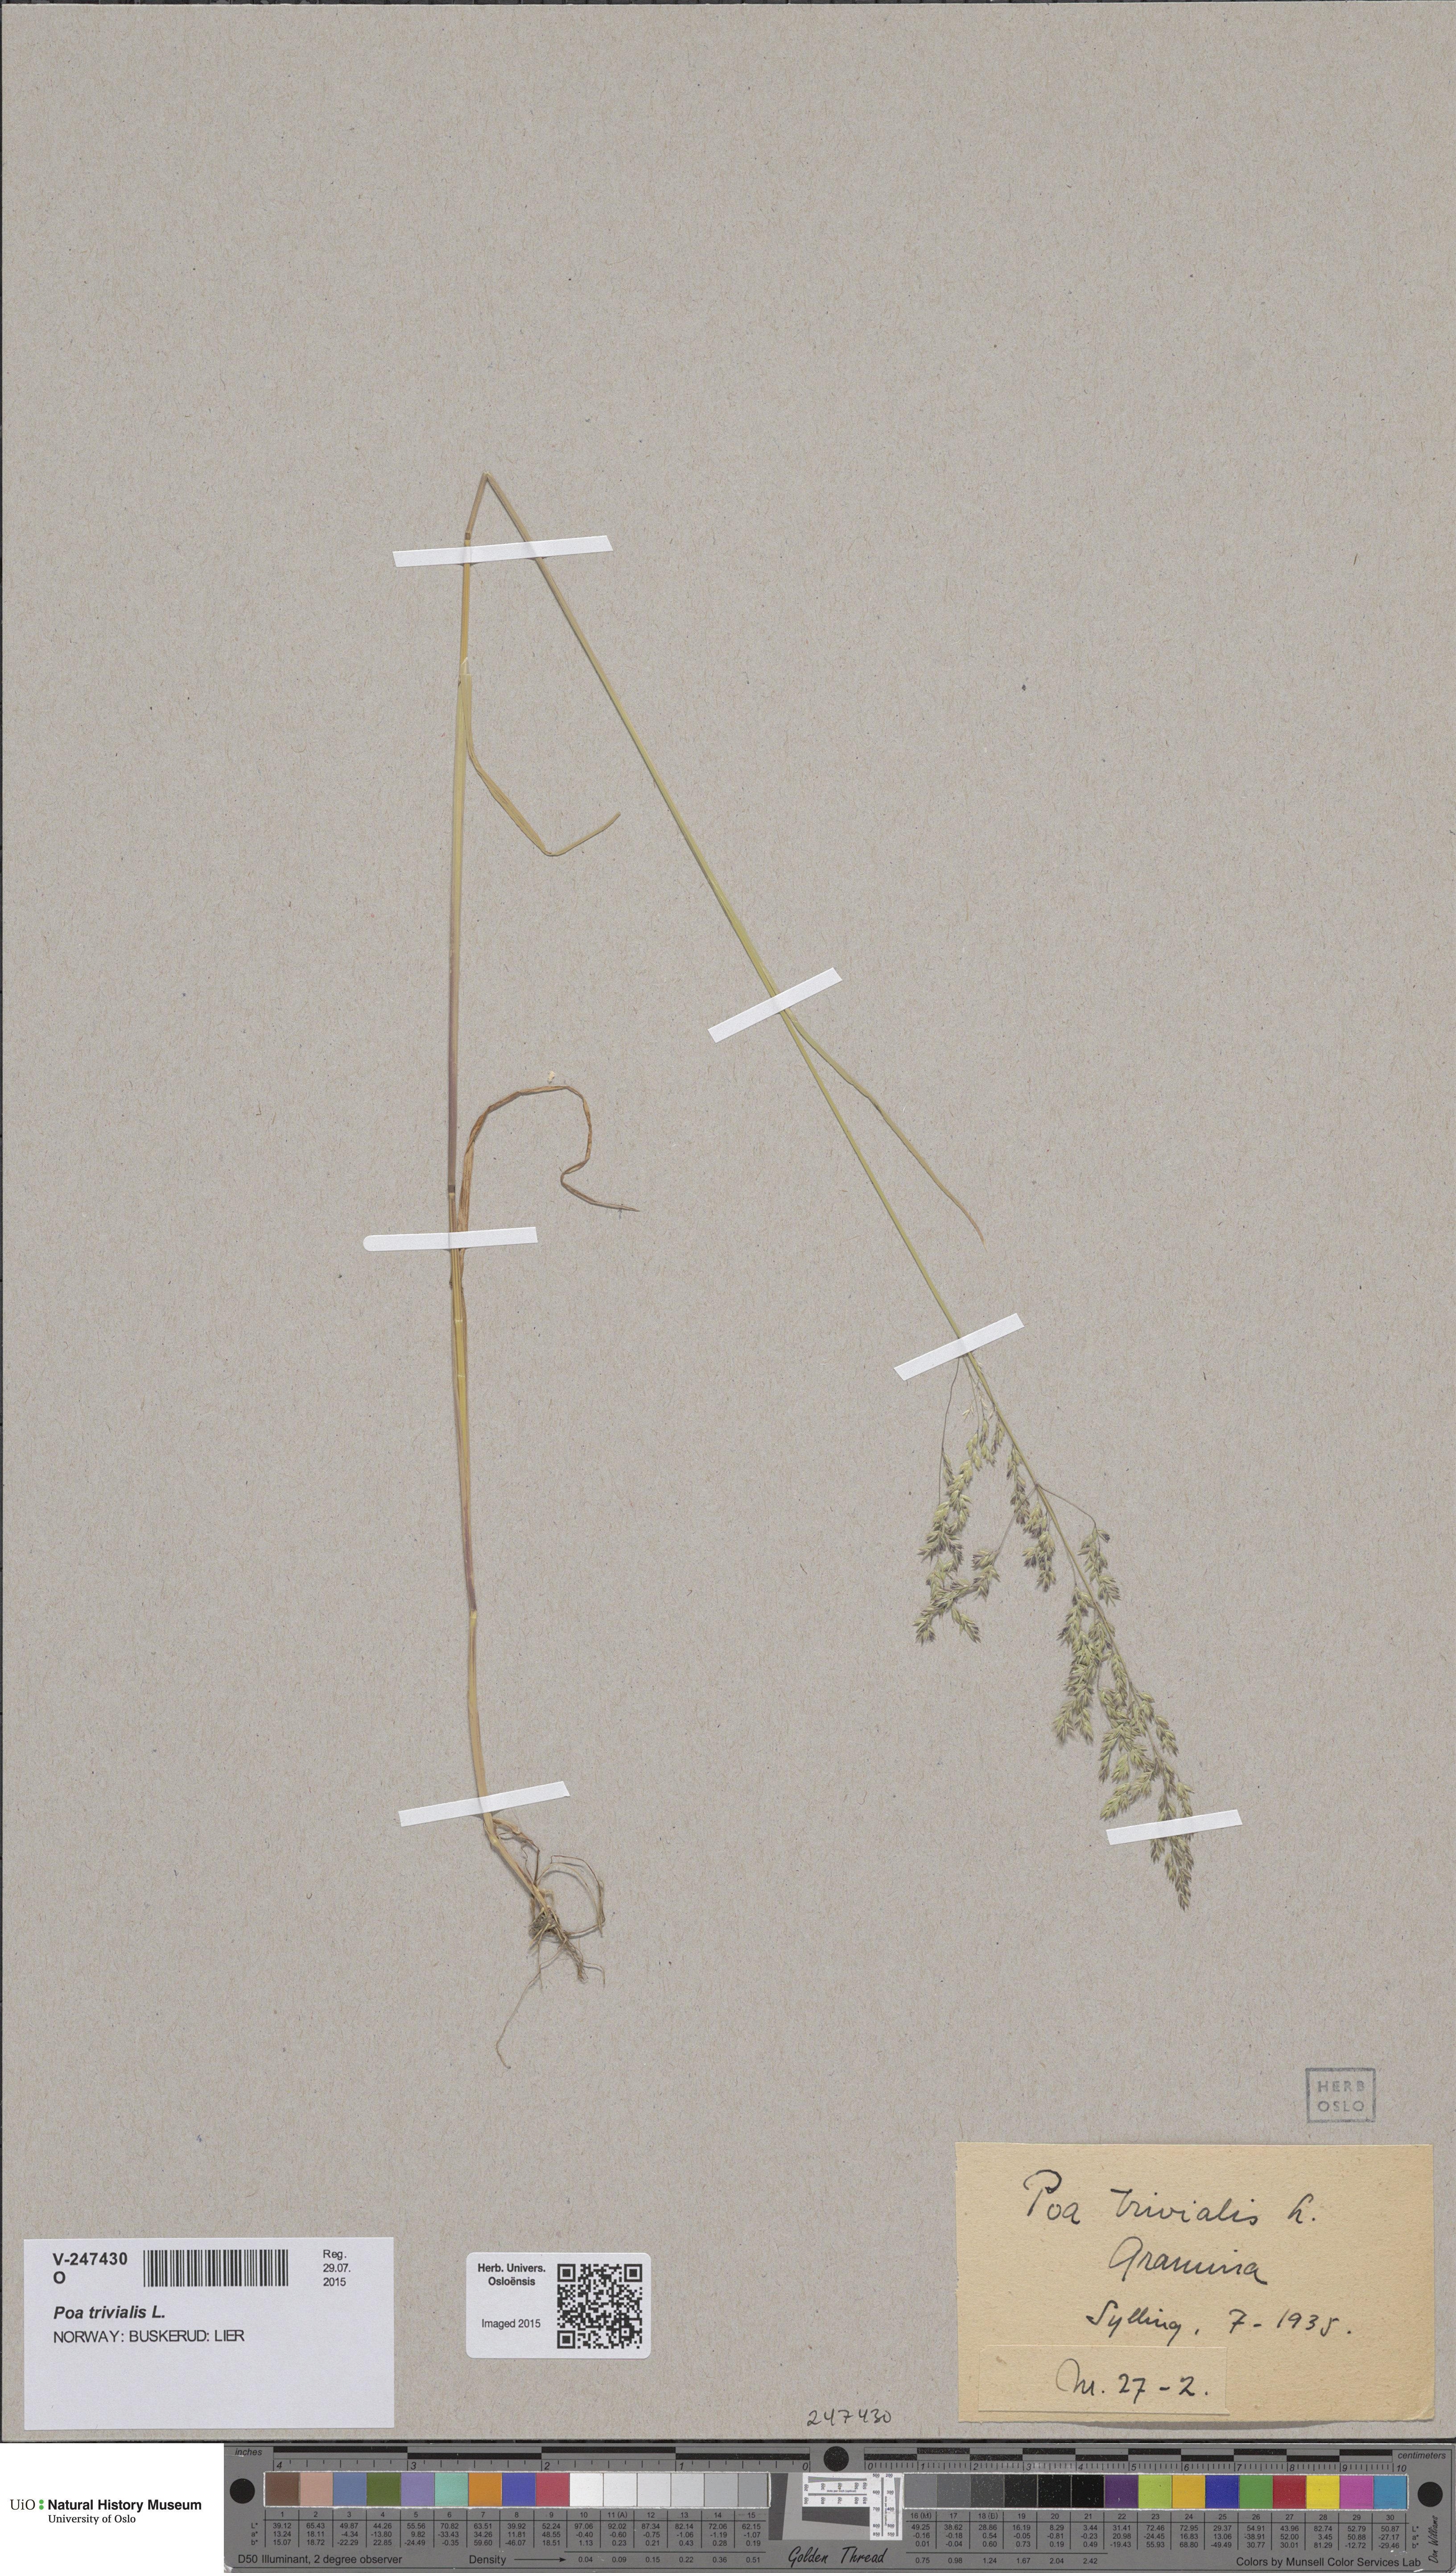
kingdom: Plantae
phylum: Tracheophyta
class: Liliopsida
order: Poales
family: Poaceae
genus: Poa
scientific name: Poa trivialis
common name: Rough bluegrass
